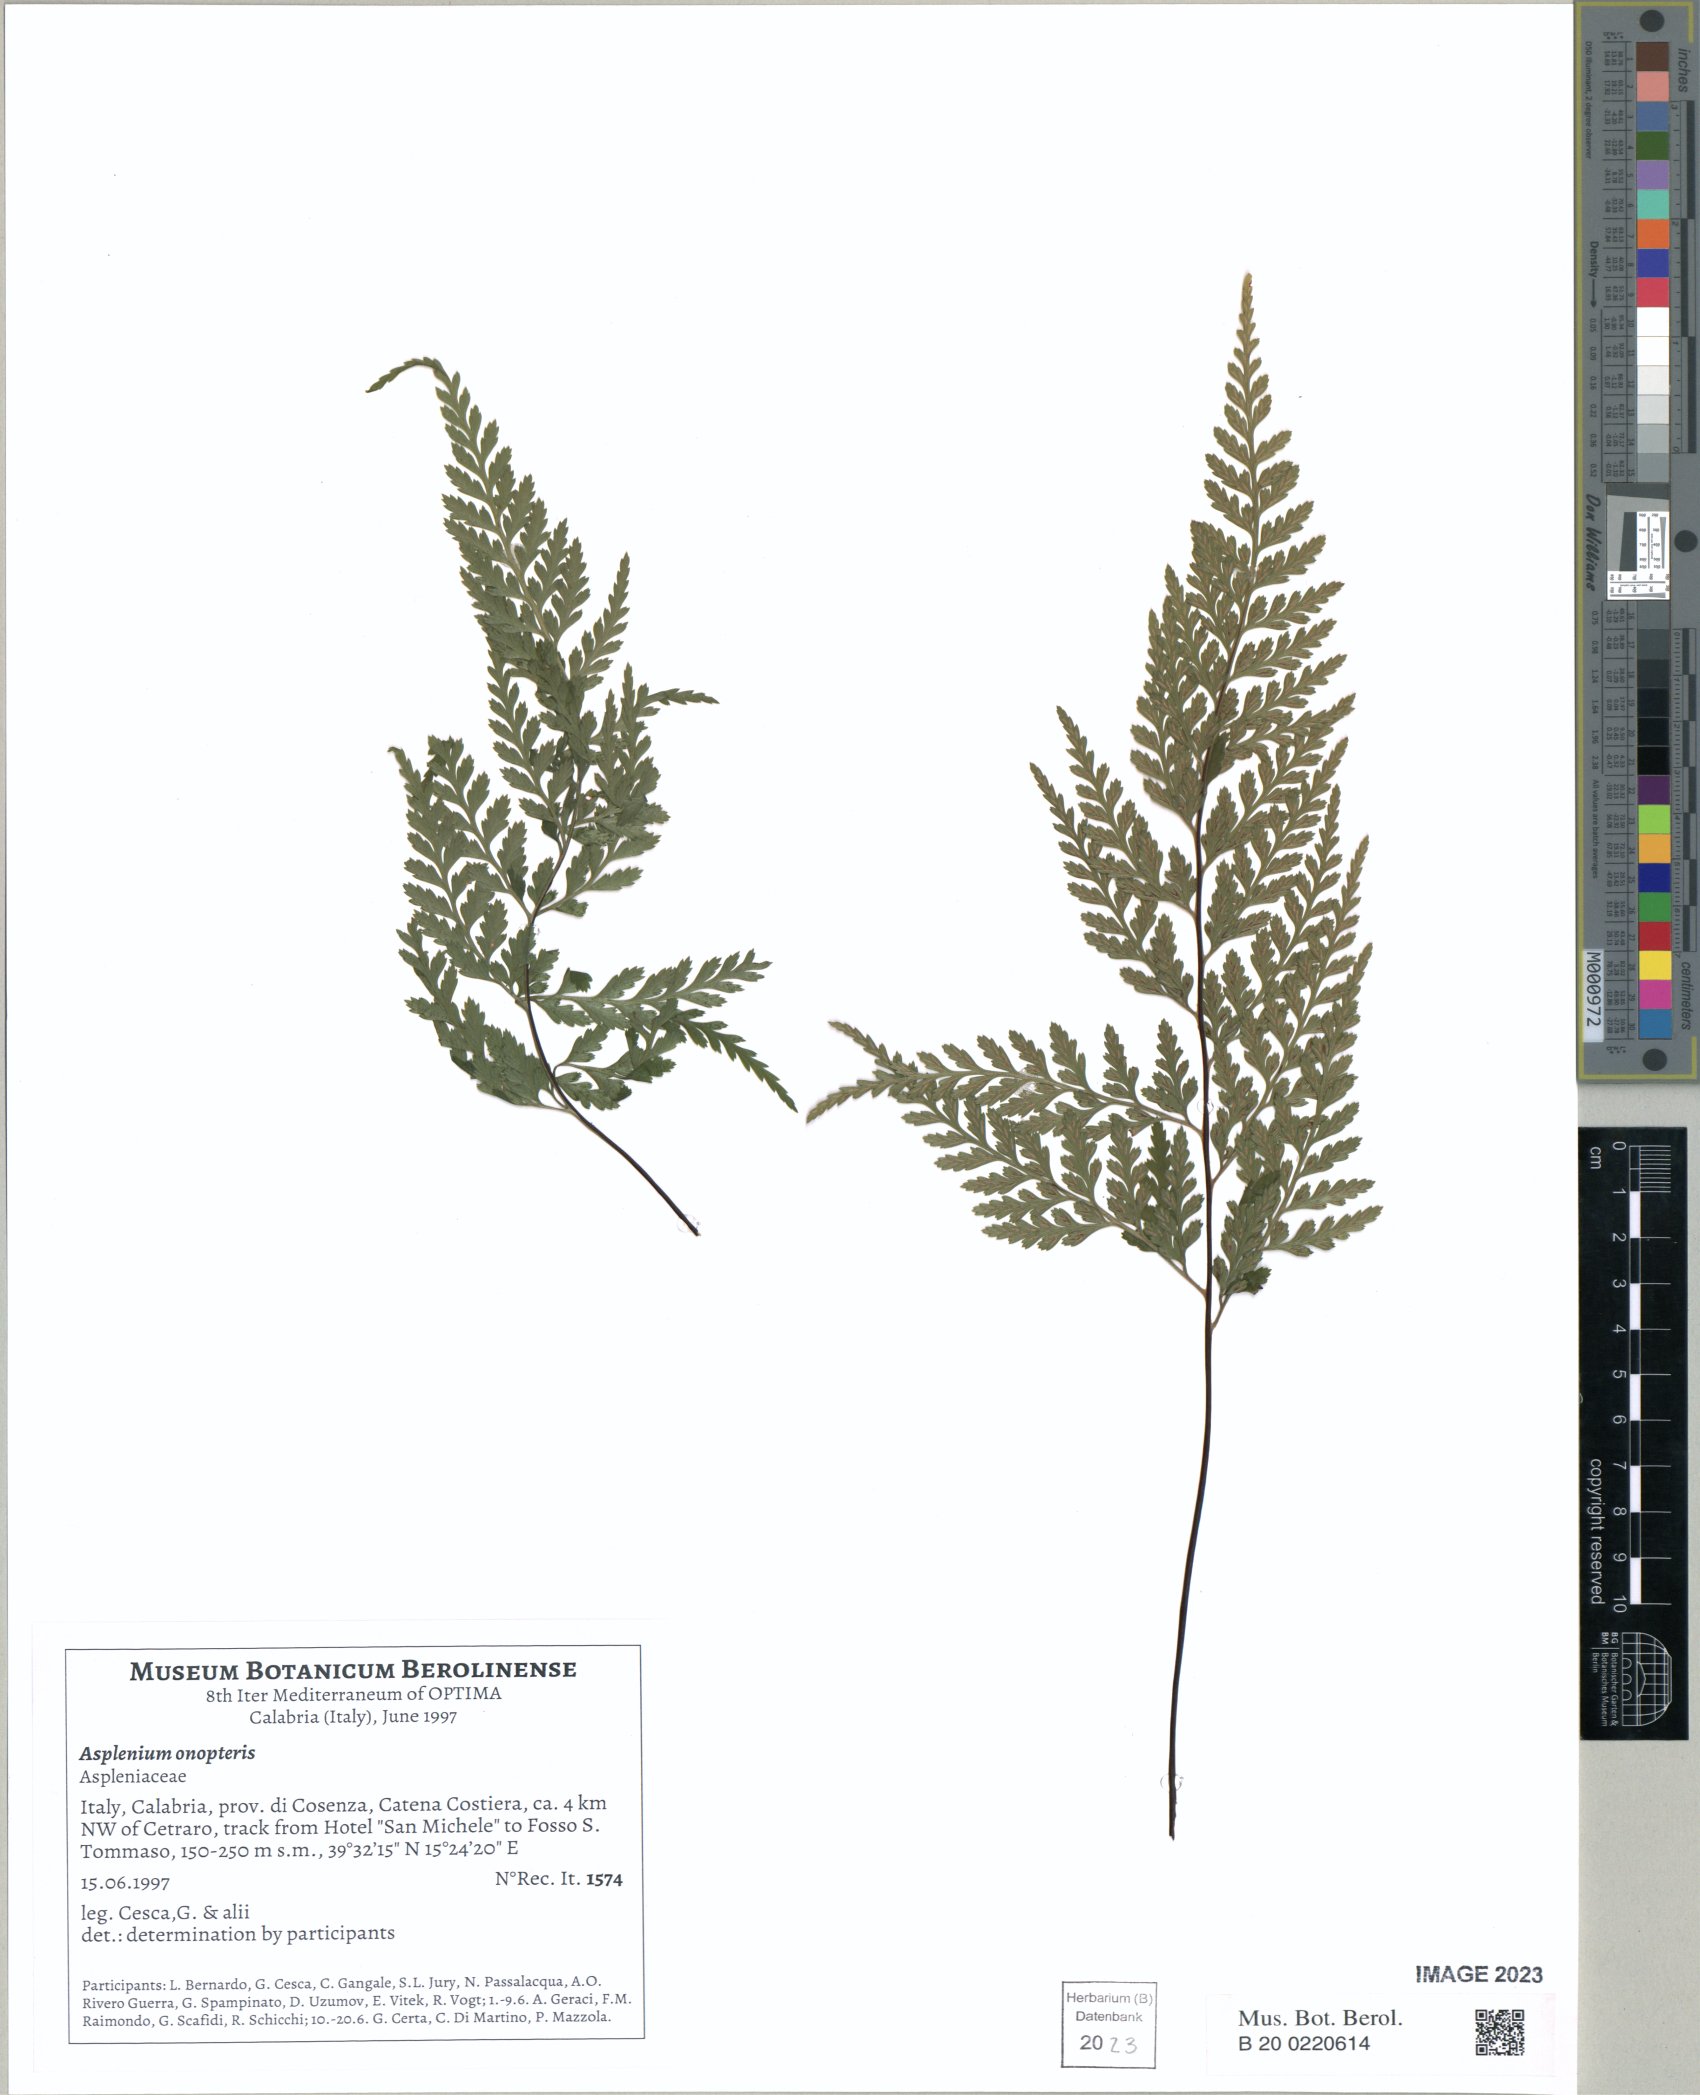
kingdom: Plantae
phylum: Tracheophyta
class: Polypodiopsida
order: Polypodiales
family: Aspleniaceae
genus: Asplenium
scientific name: Asplenium onopteris
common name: Irish spleenwort
